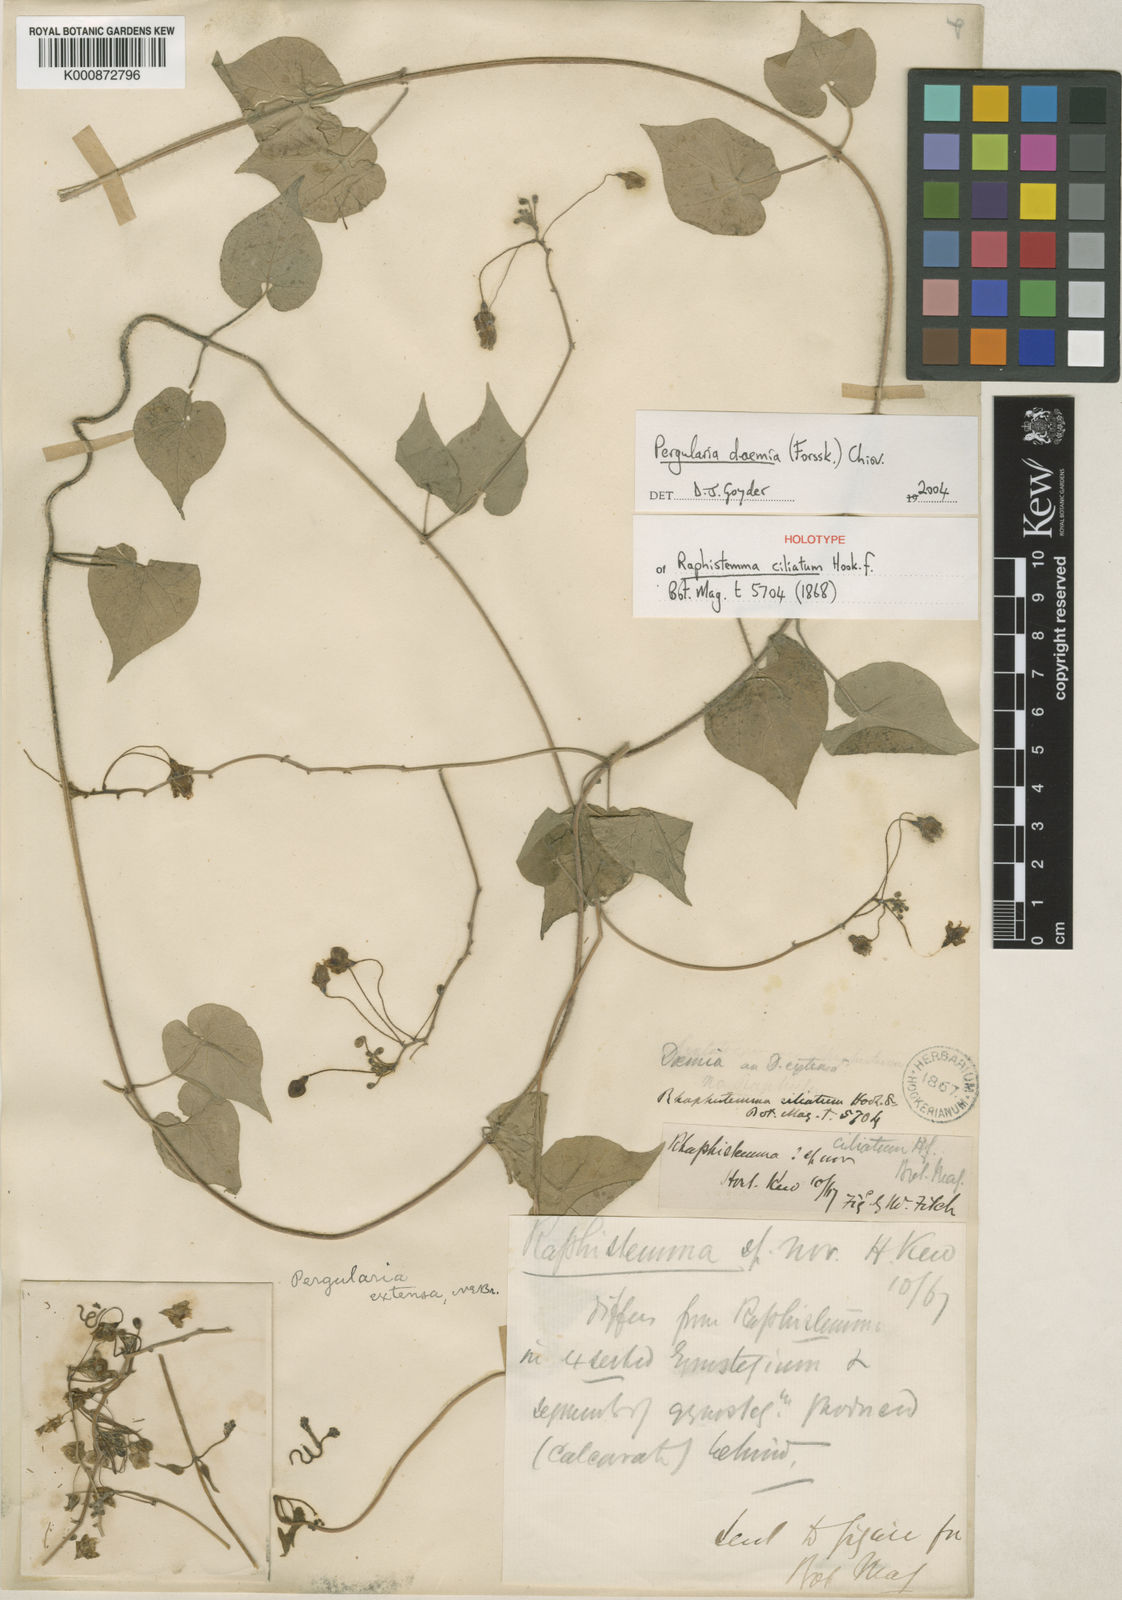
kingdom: Plantae
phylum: Tracheophyta
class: Magnoliopsida
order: Gentianales
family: Apocynaceae
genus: Pergularia
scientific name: Pergularia daemia
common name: Trellis-vine
